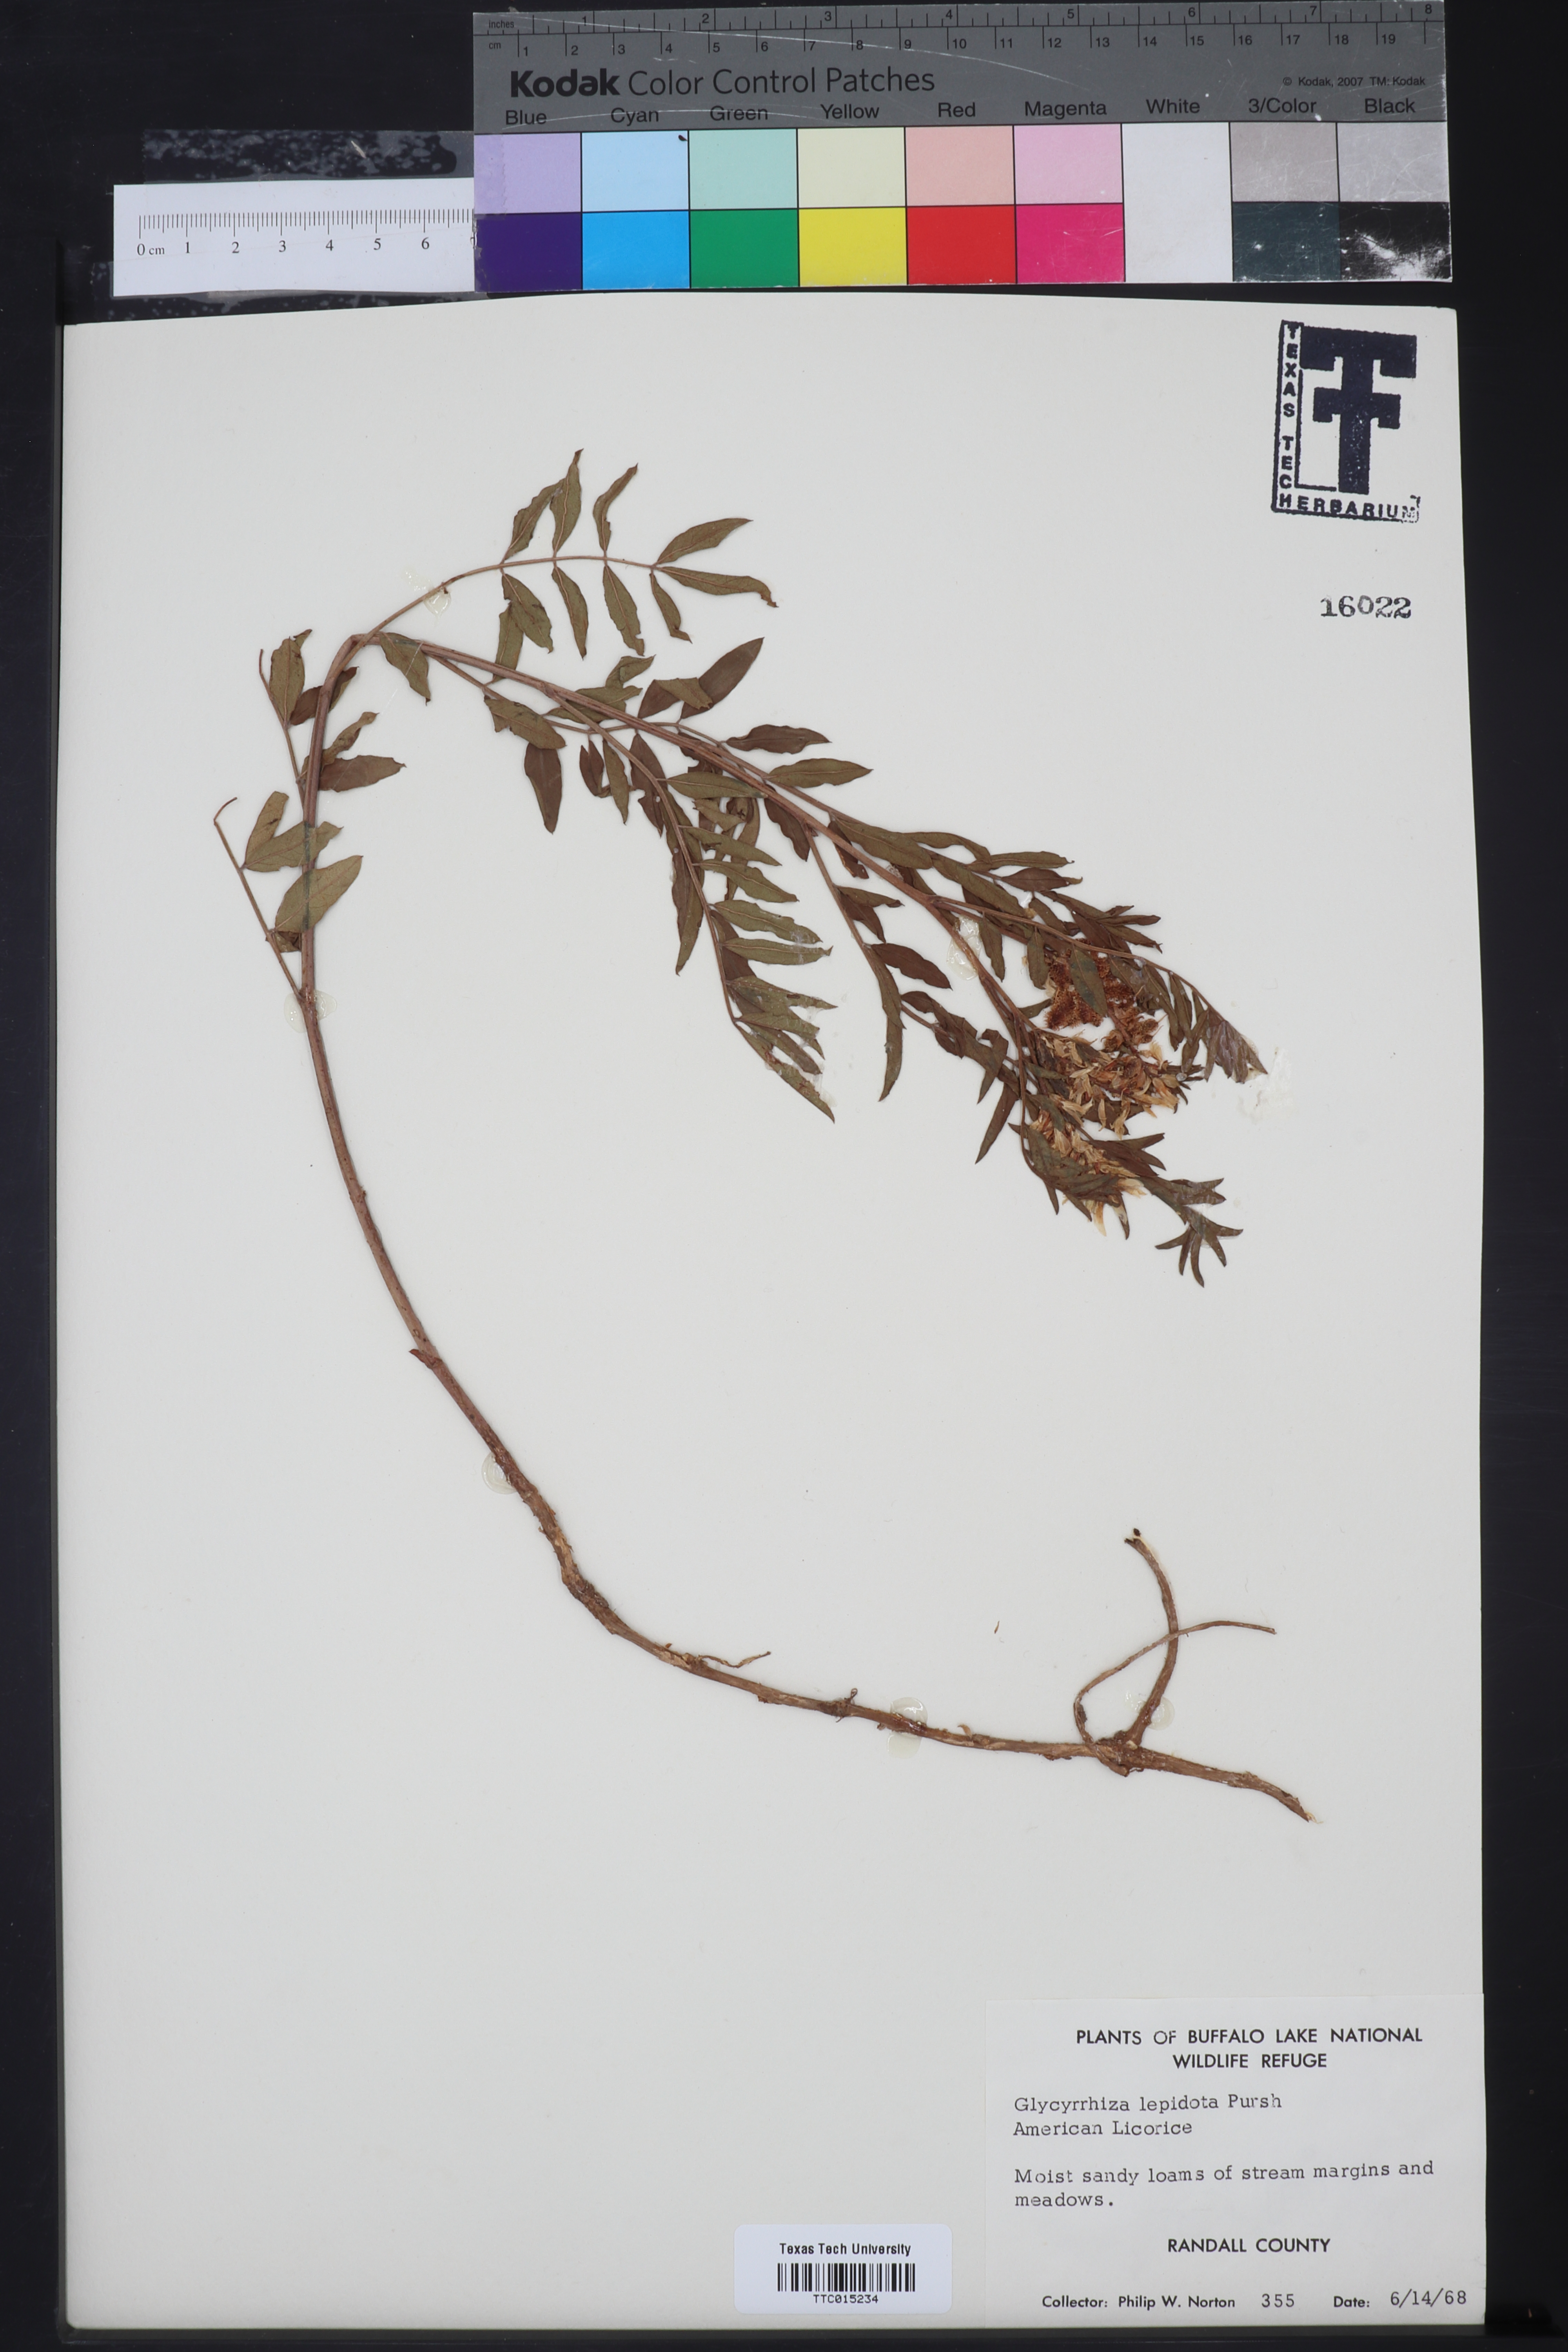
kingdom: Plantae
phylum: Tracheophyta
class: Magnoliopsida
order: Fabales
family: Fabaceae
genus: Glycyrrhiza
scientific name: Glycyrrhiza lepidota
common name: American liquorice
